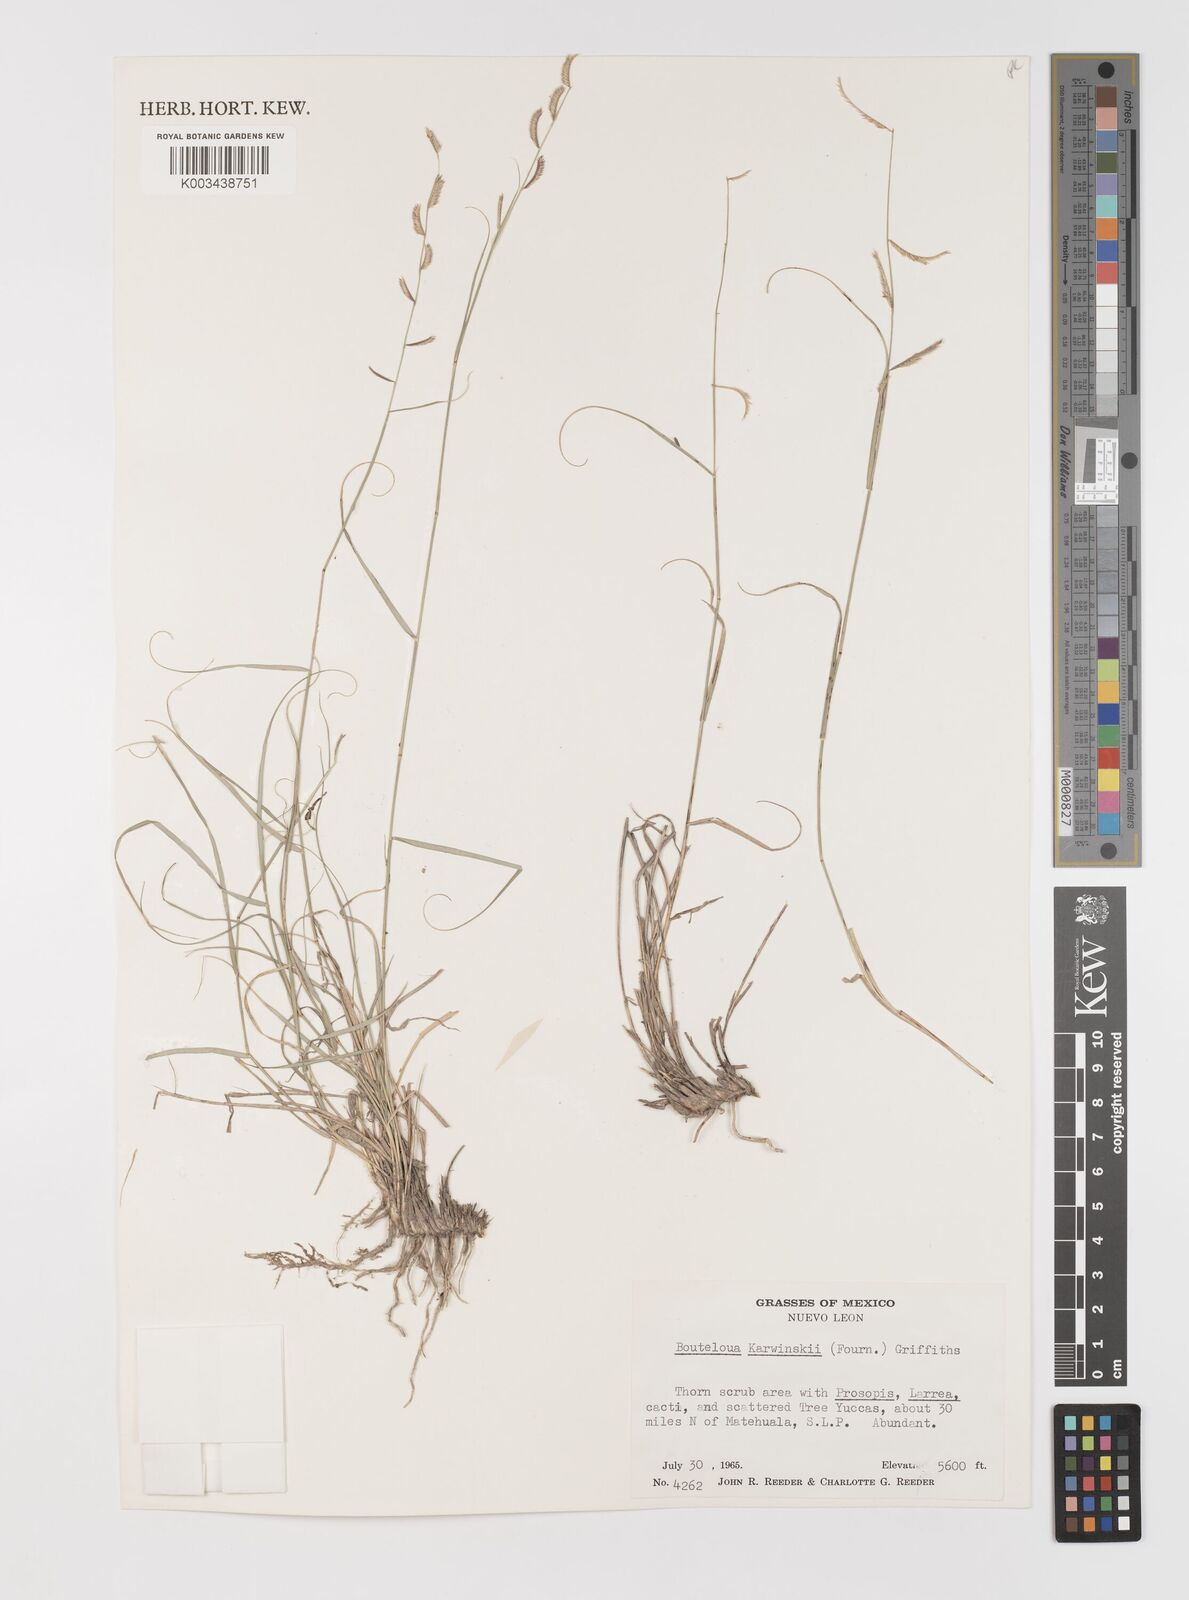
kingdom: Plantae
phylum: Tracheophyta
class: Liliopsida
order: Poales
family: Poaceae
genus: Bouteloua
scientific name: Bouteloua karwinskyi
